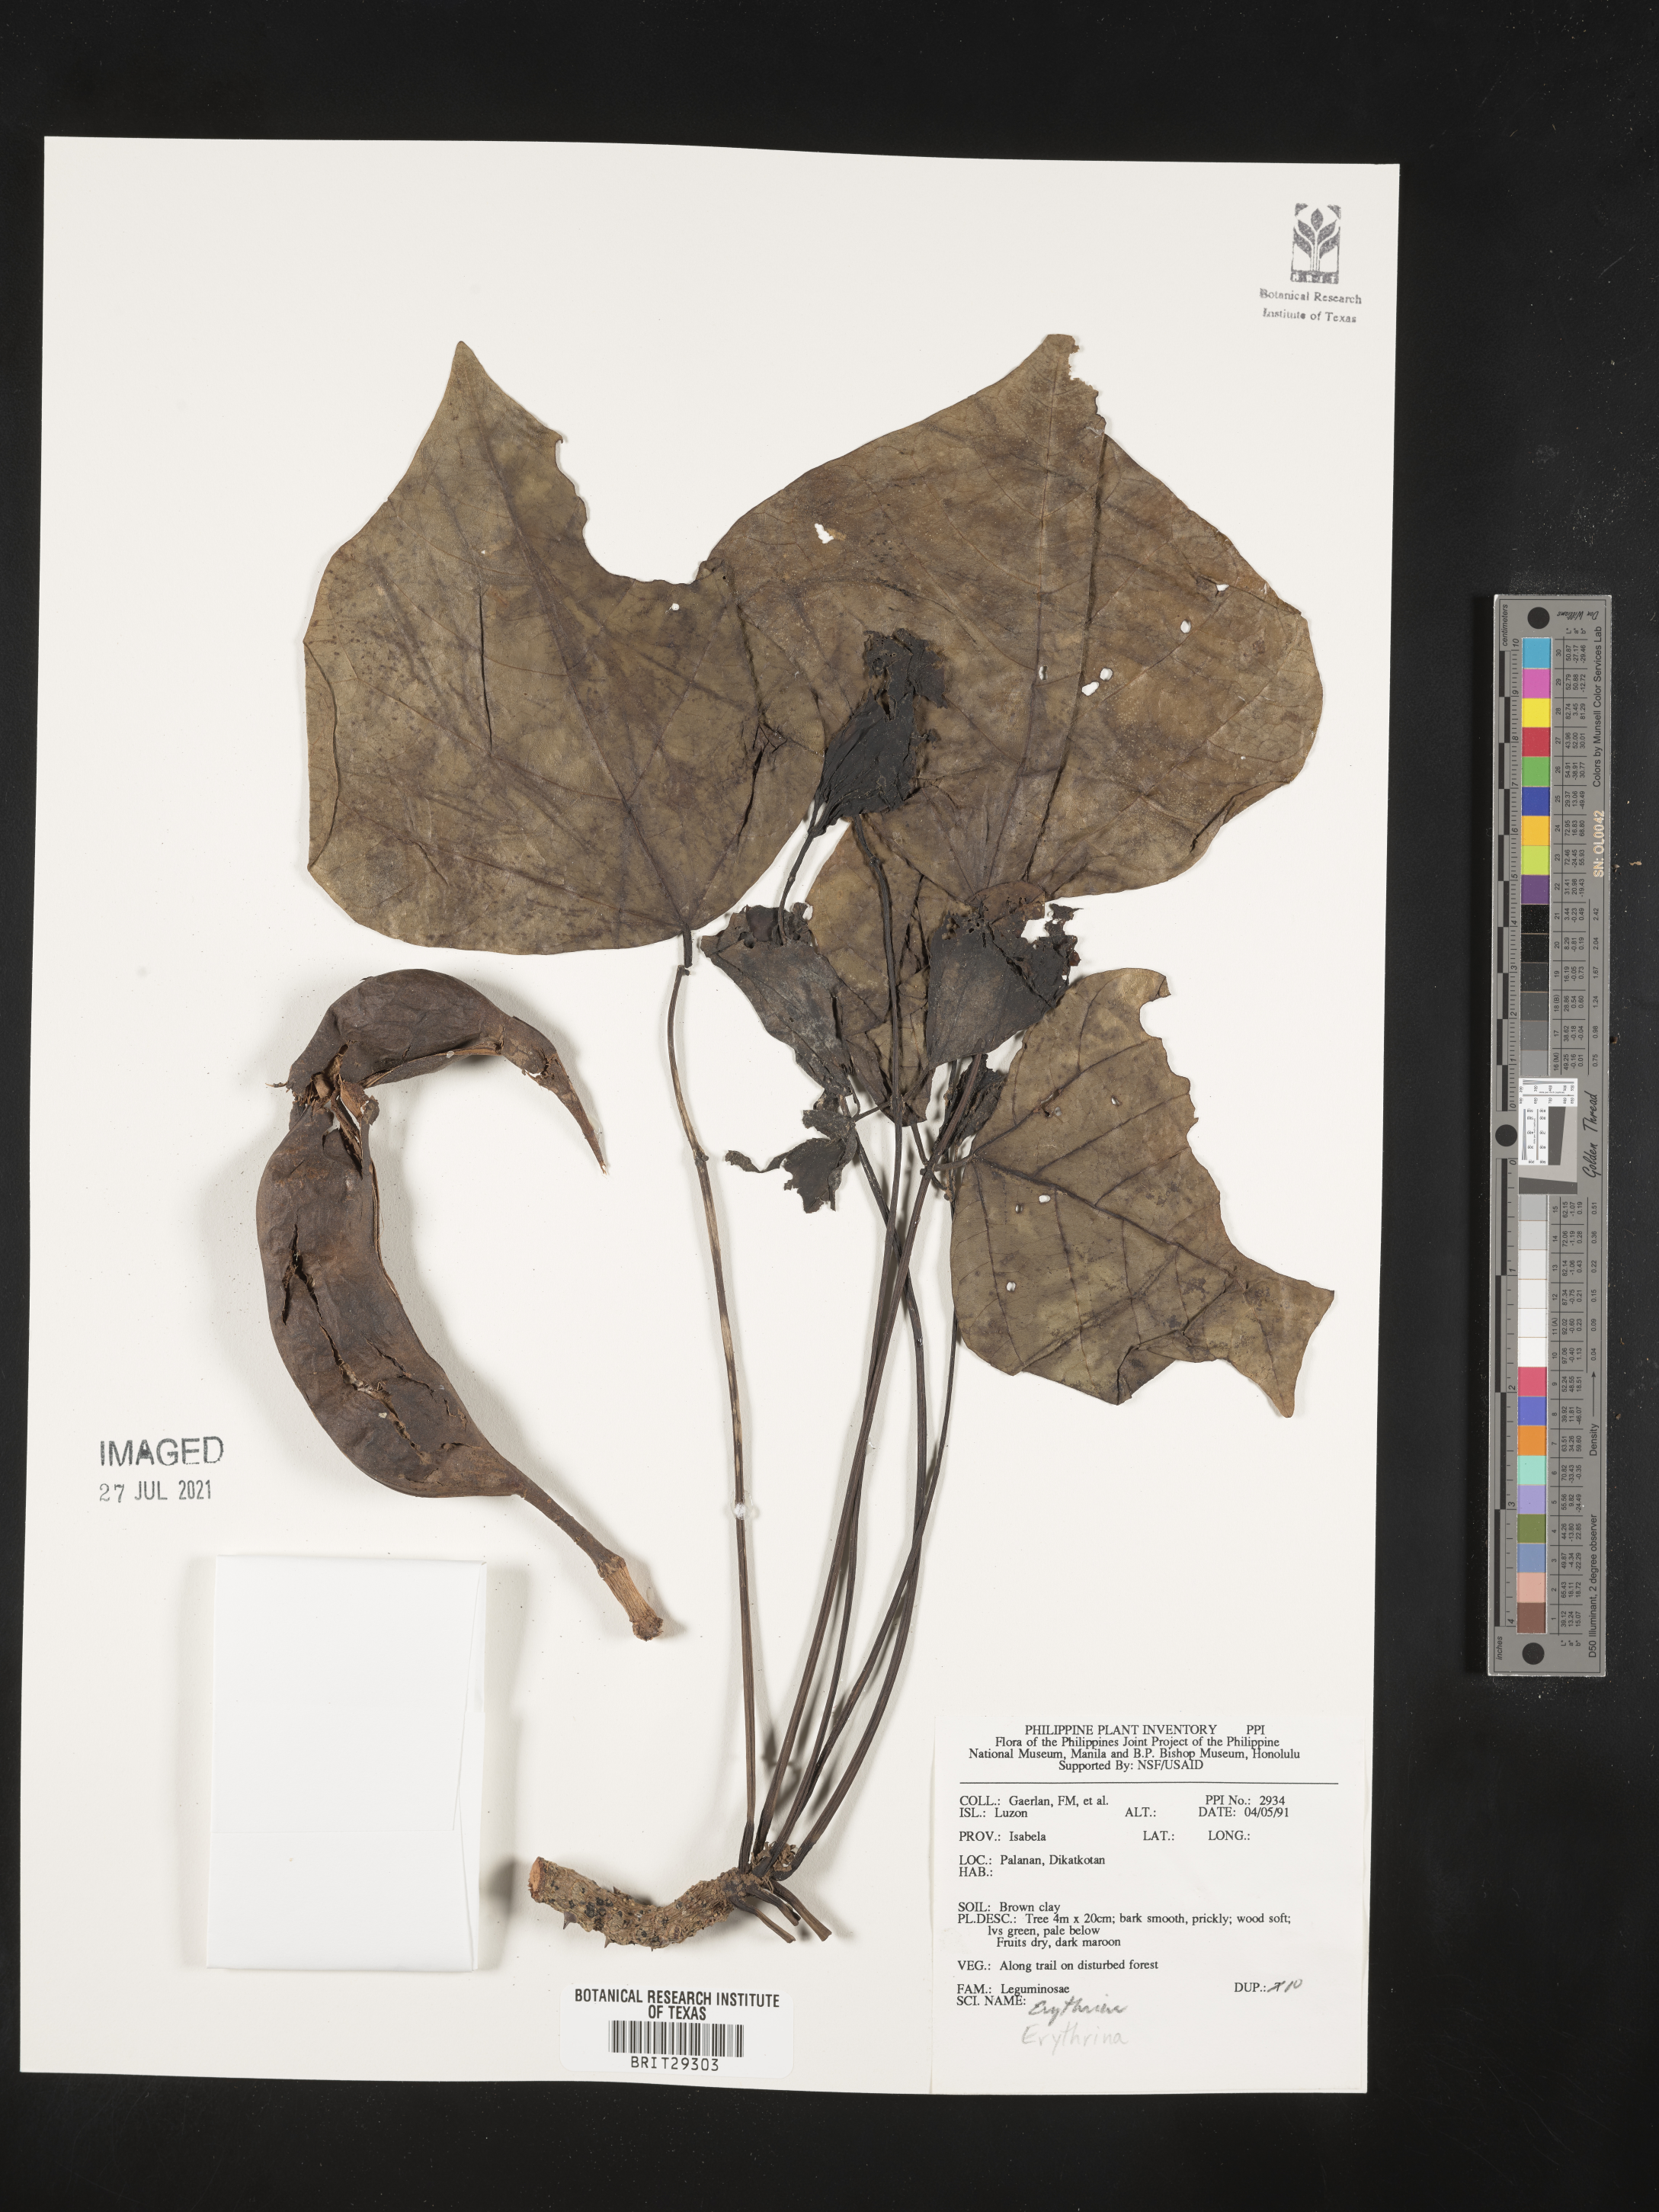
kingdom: Plantae
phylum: Tracheophyta
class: Magnoliopsida
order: Fabales
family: Fabaceae
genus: Erythrina
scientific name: Erythrina
